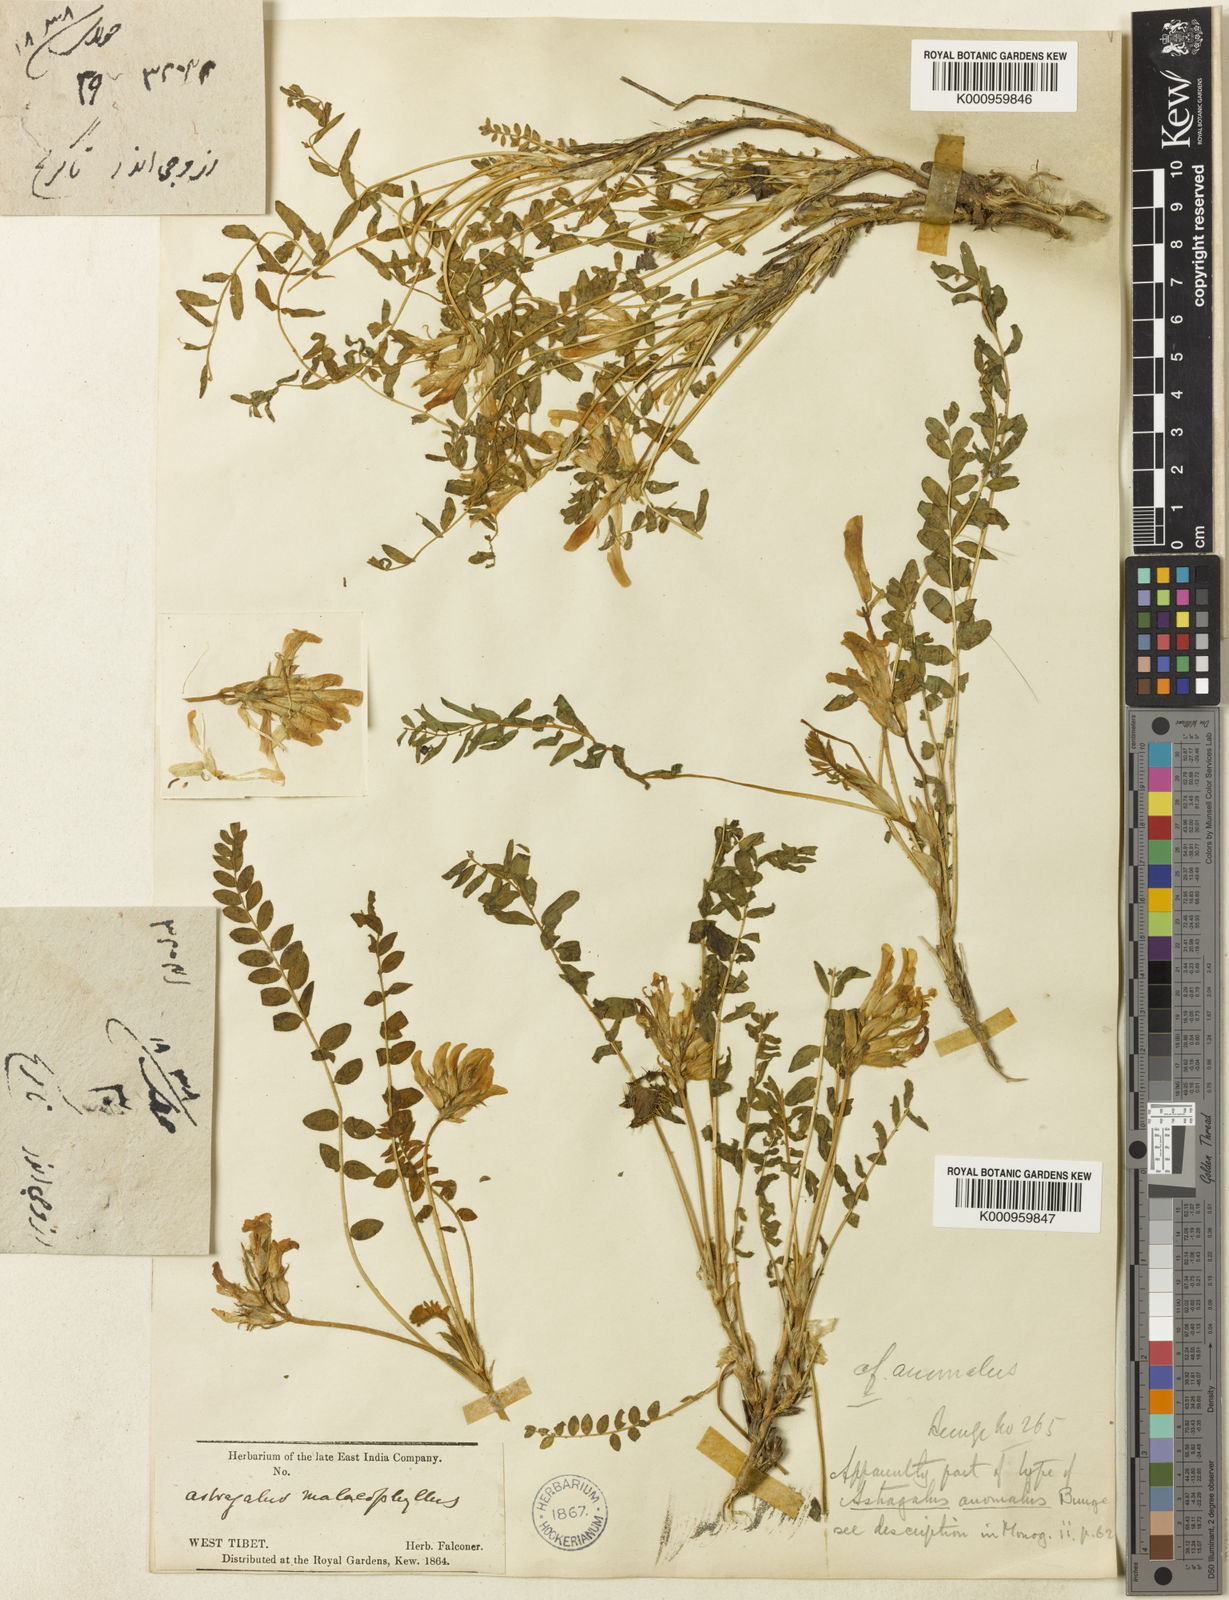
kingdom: Plantae
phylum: Tracheophyta
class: Magnoliopsida
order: Fabales
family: Fabaceae
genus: Astragalus
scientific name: Astragalus rhizanthus
